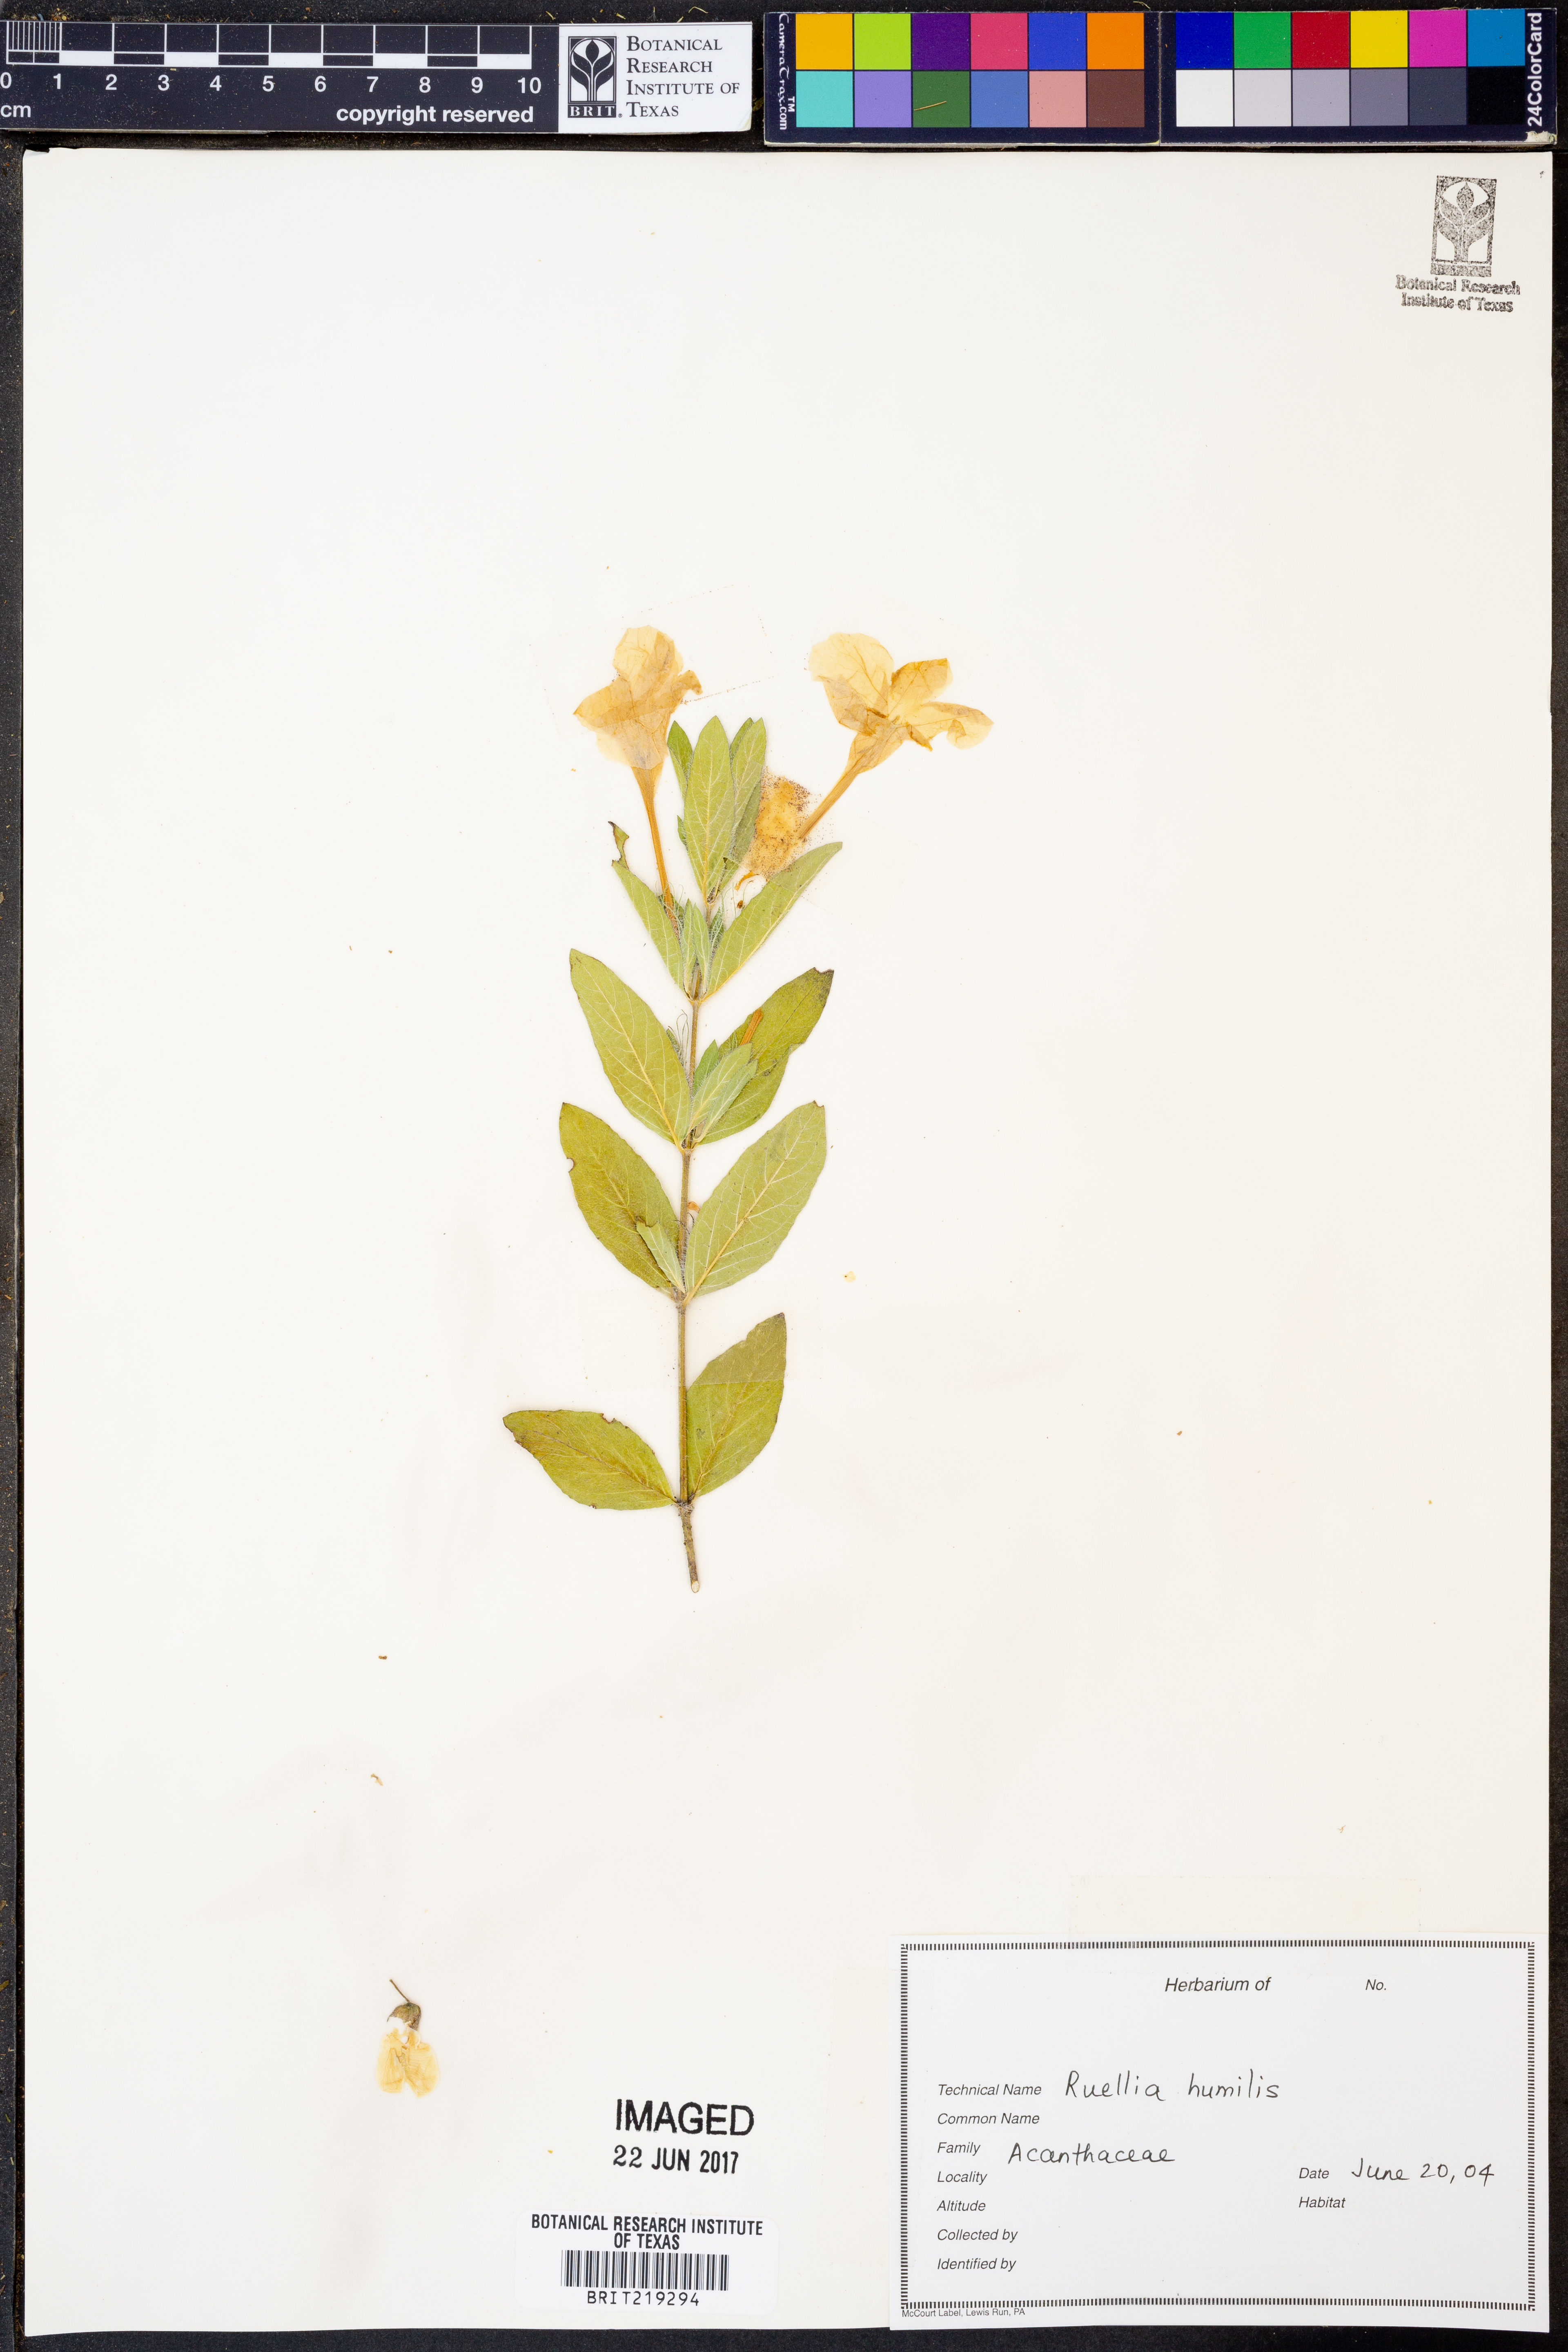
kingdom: Plantae
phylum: Tracheophyta
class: Magnoliopsida
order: Lamiales
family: Acanthaceae
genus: Ruellia
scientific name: Ruellia humilis
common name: Fringe-leaf ruellia
